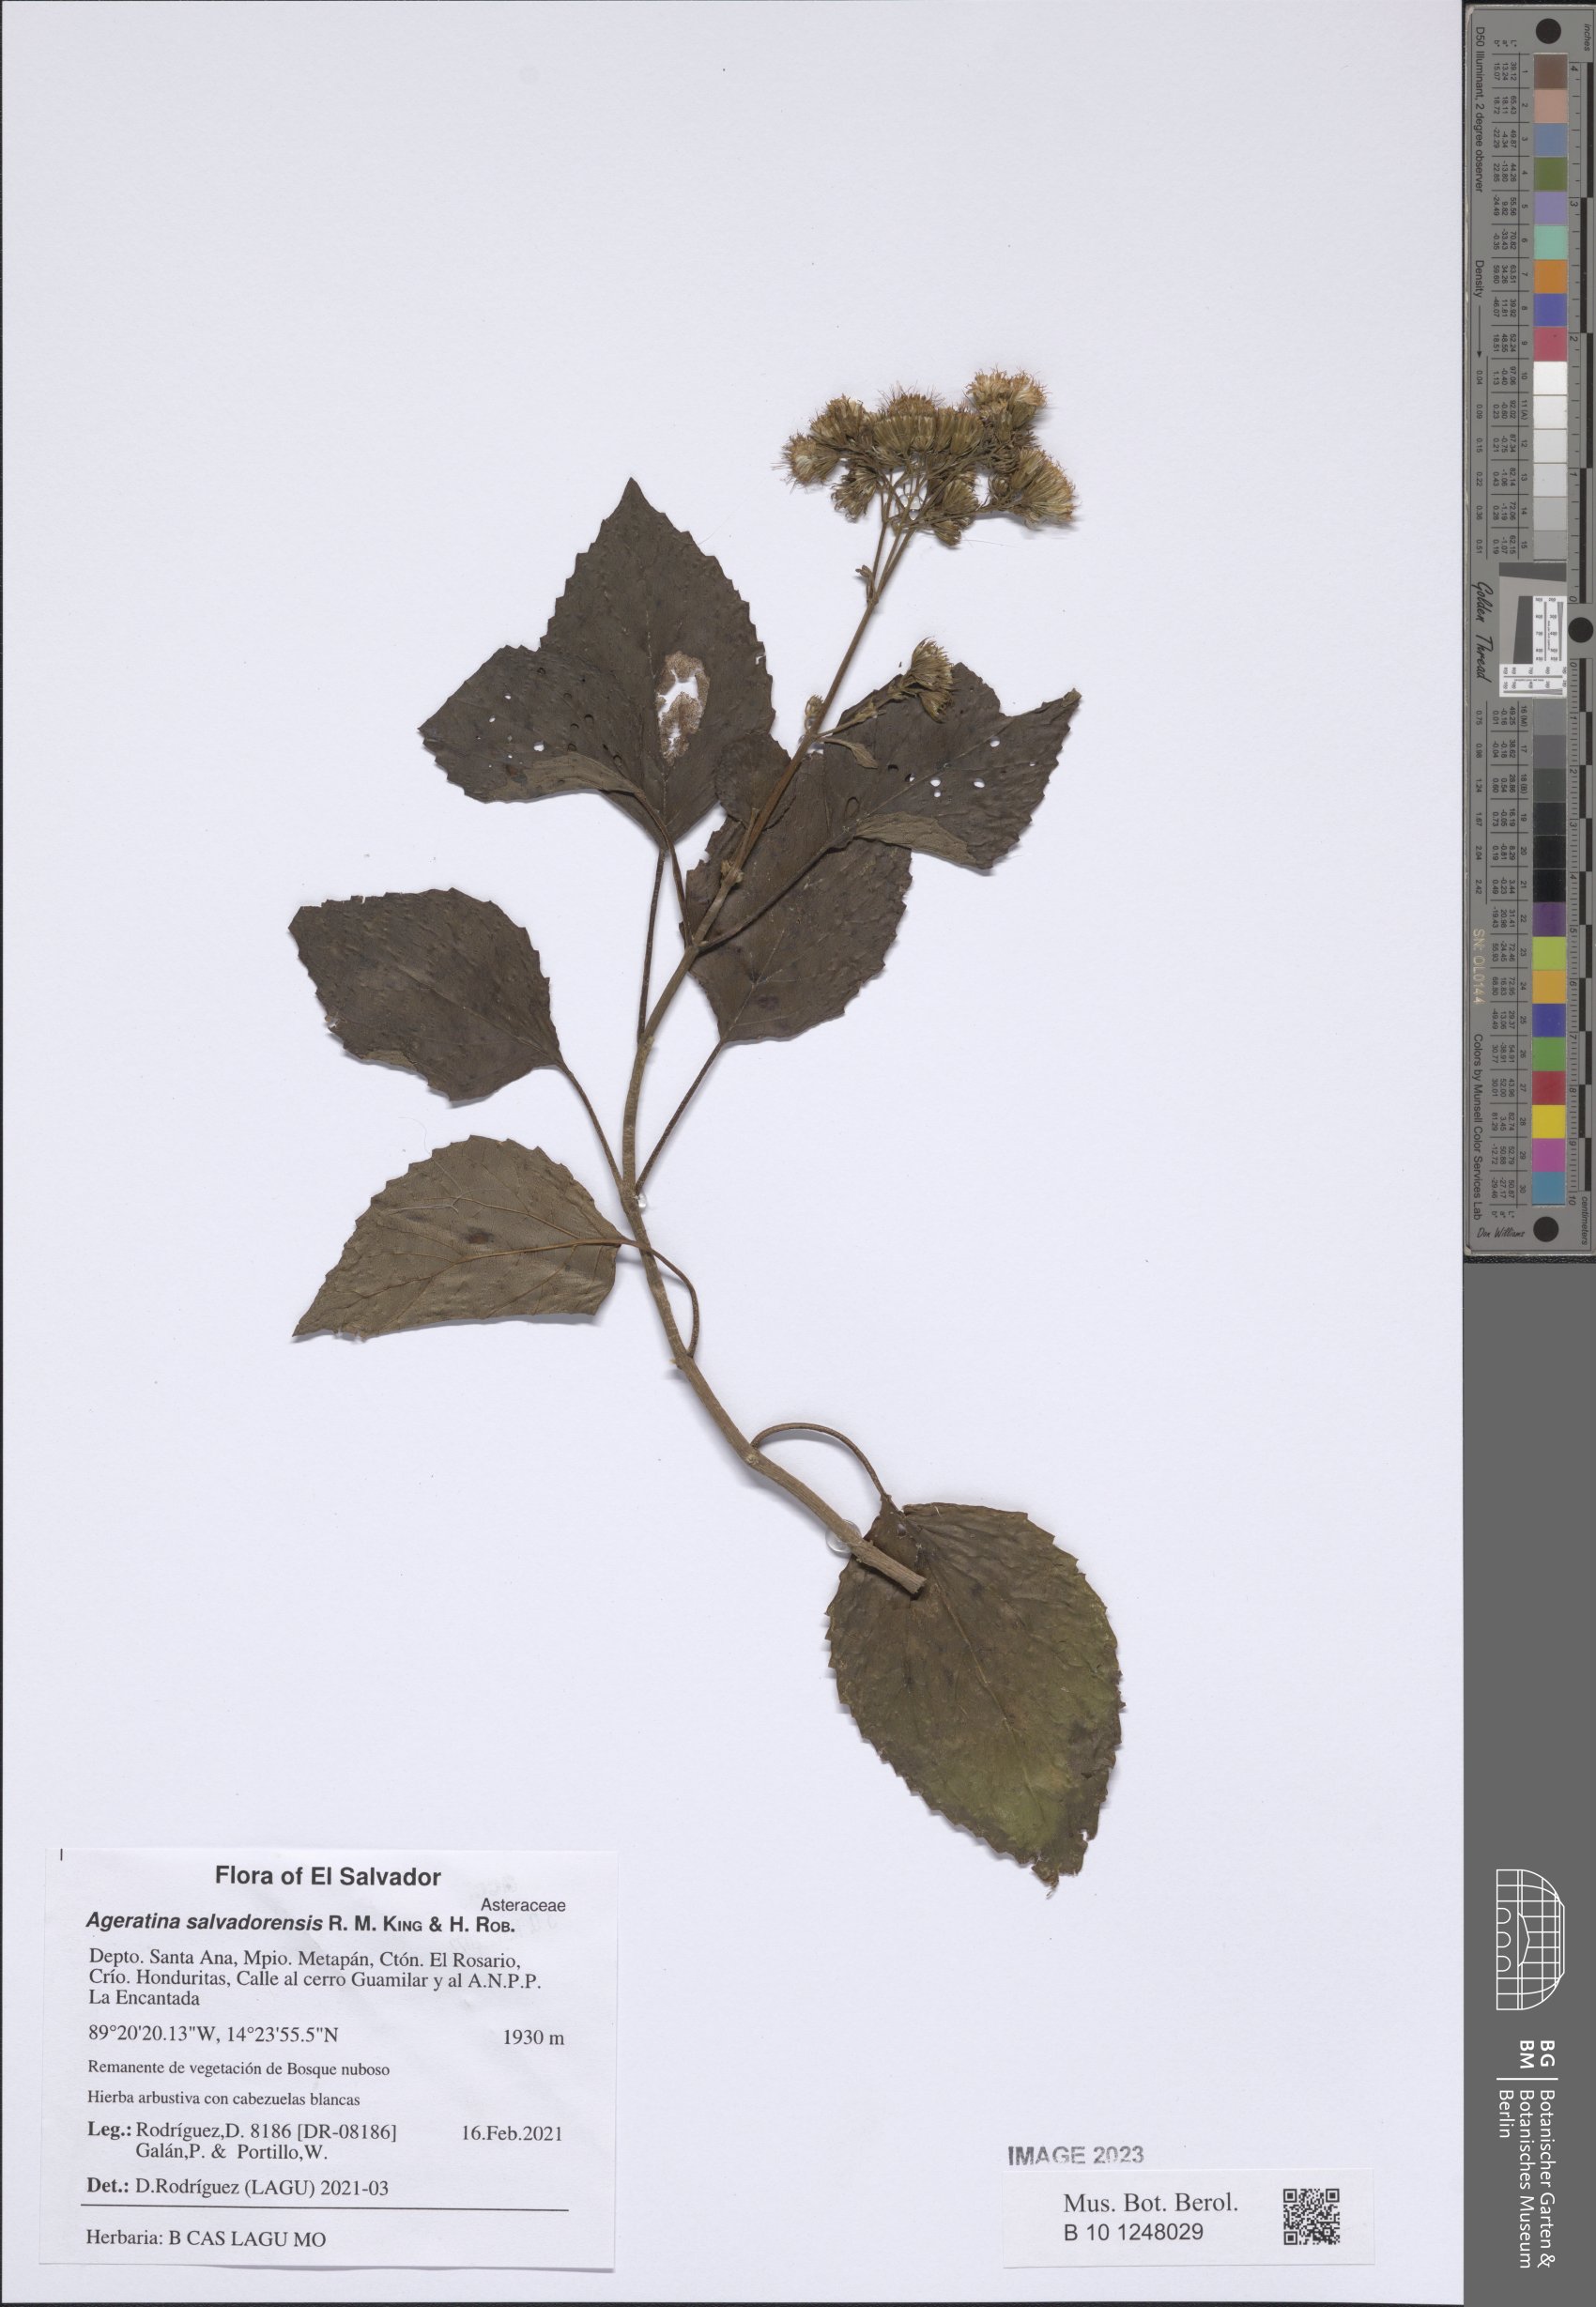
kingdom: Plantae
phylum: Tracheophyta
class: Magnoliopsida
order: Asterales
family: Asteraceae
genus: Ageratina
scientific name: Ageratina salvadorensis
